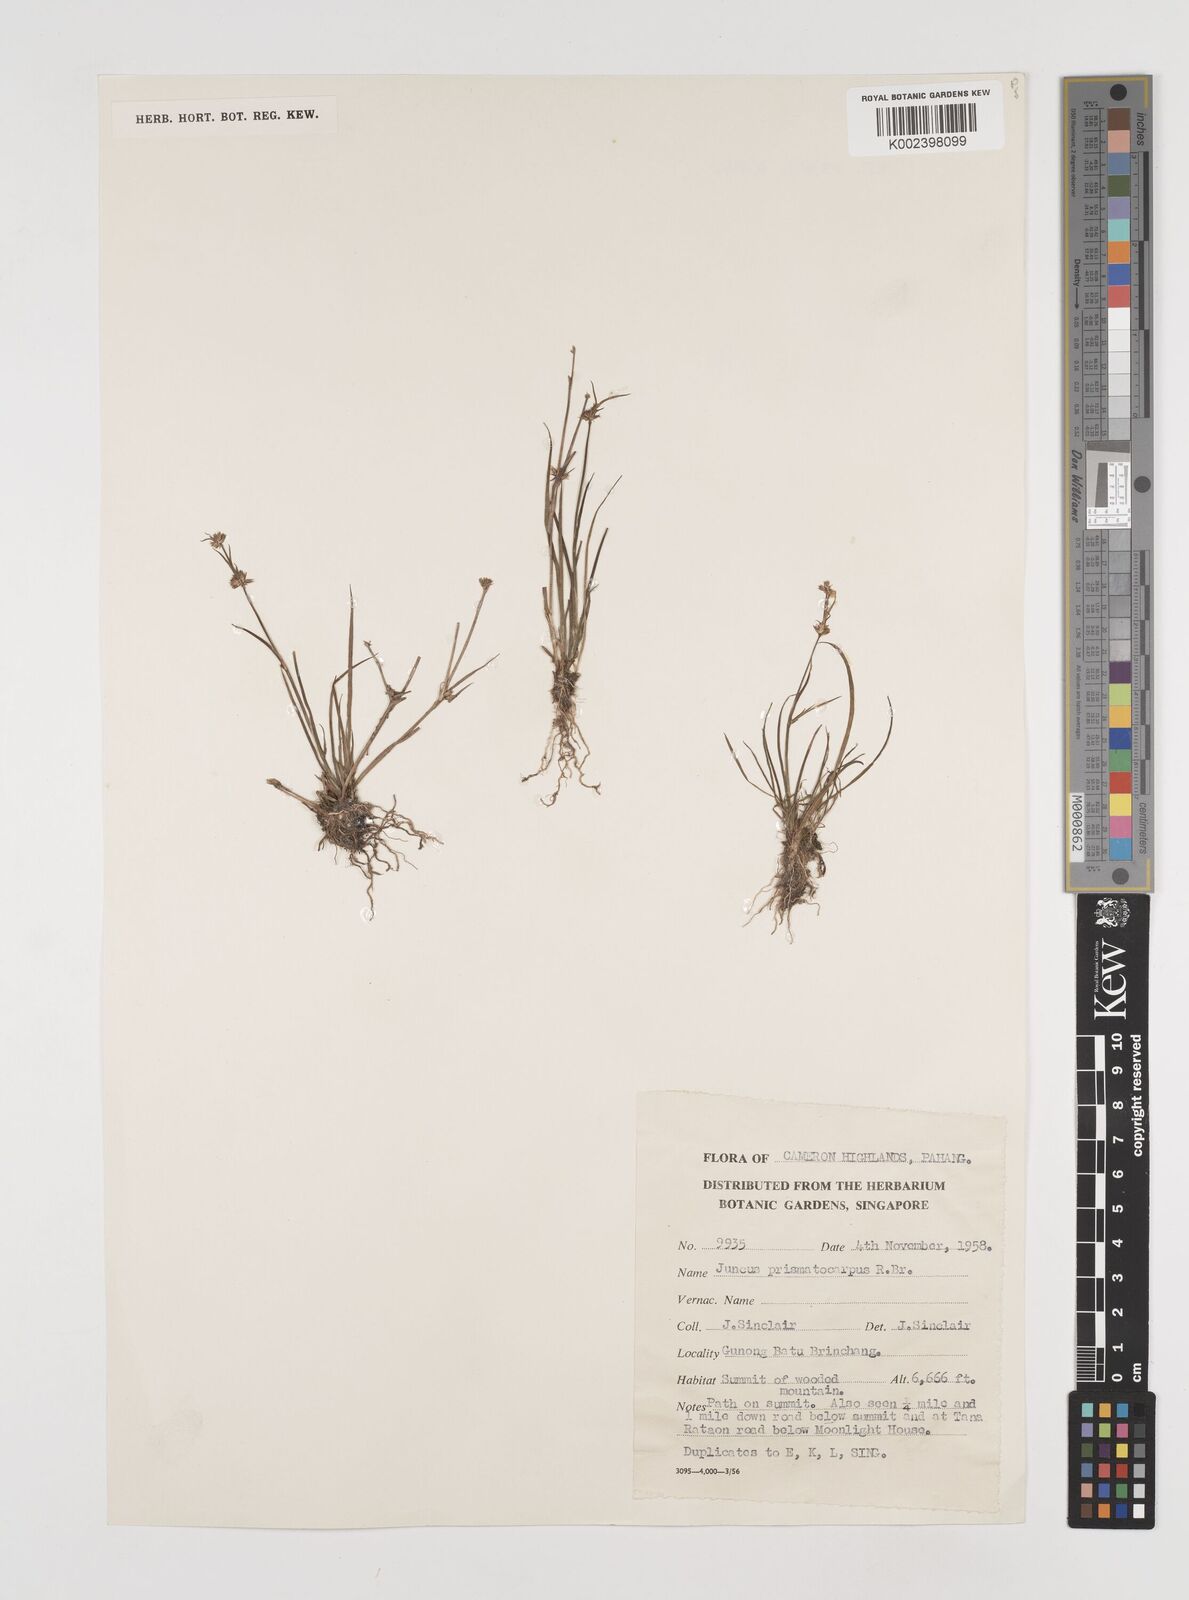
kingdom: Plantae
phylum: Tracheophyta
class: Liliopsida
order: Poales
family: Juncaceae
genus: Juncus
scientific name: Juncus prismatocarpus
